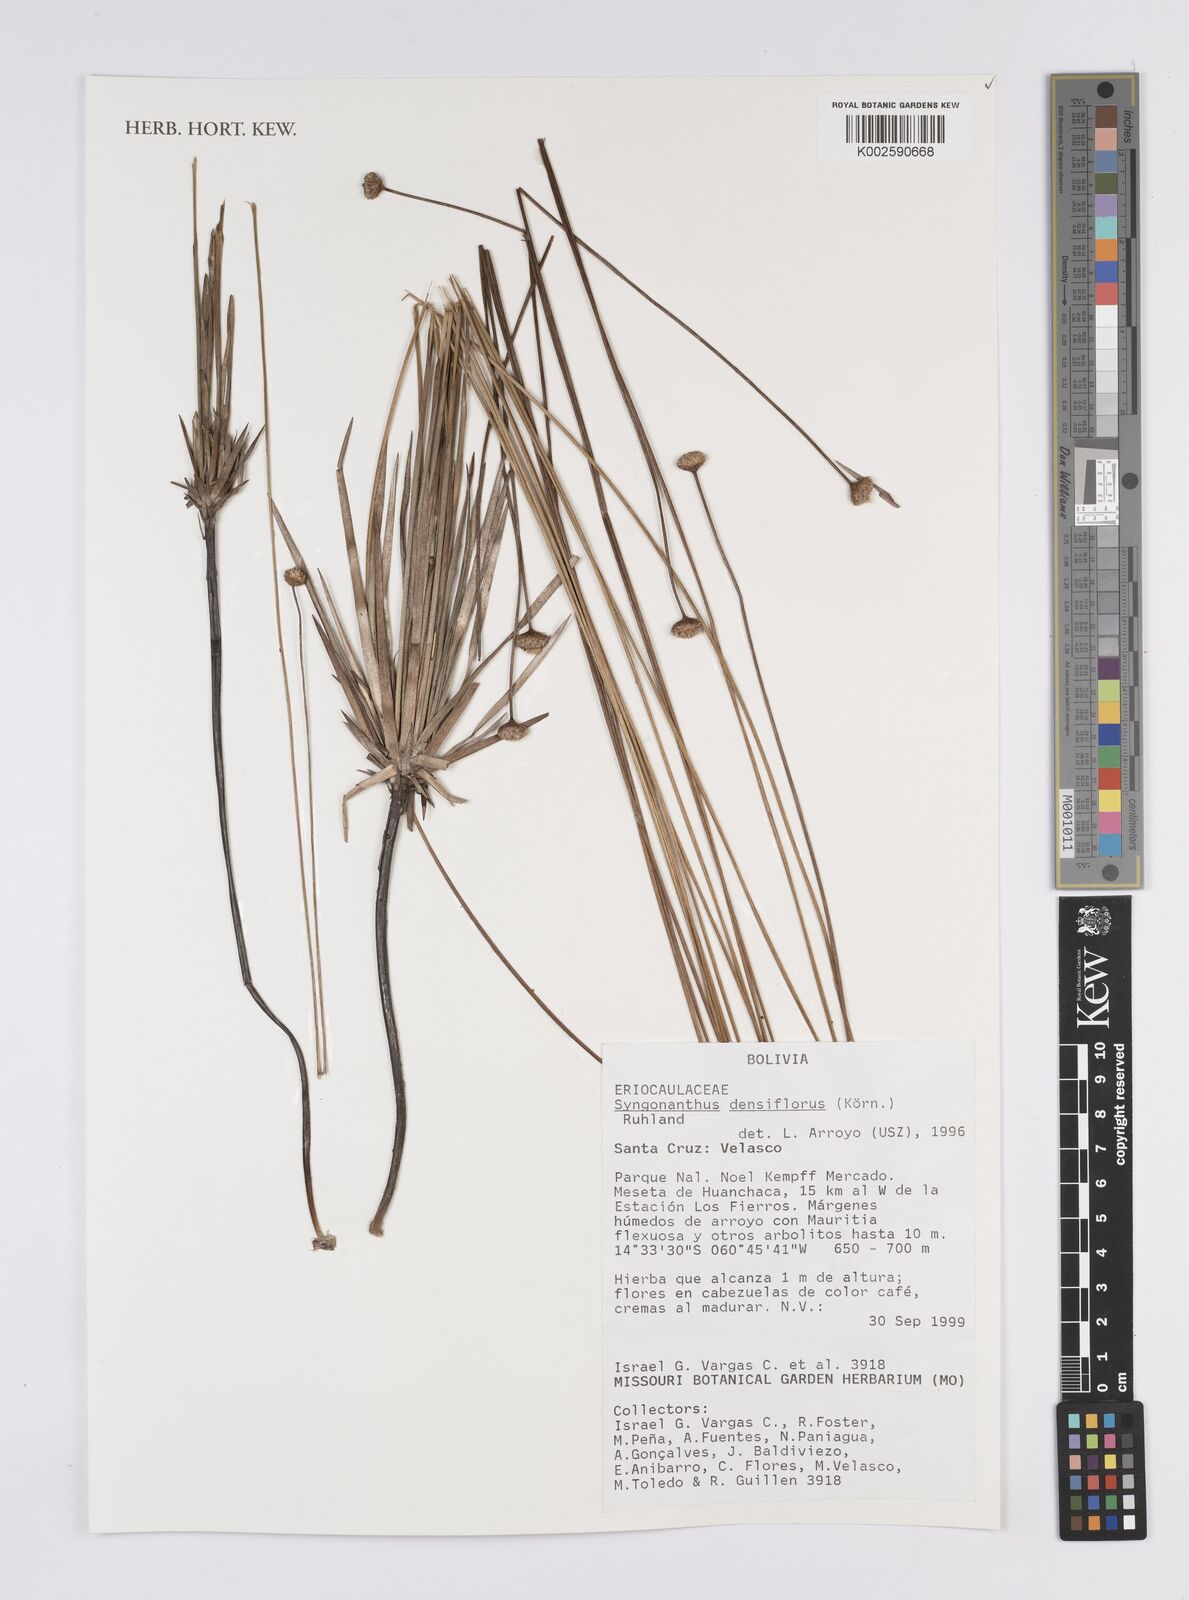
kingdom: Plantae
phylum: Tracheophyta
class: Liliopsida
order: Poales
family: Eriocaulaceae
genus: Syngonanthus
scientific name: Syngonanthus densiflorus
